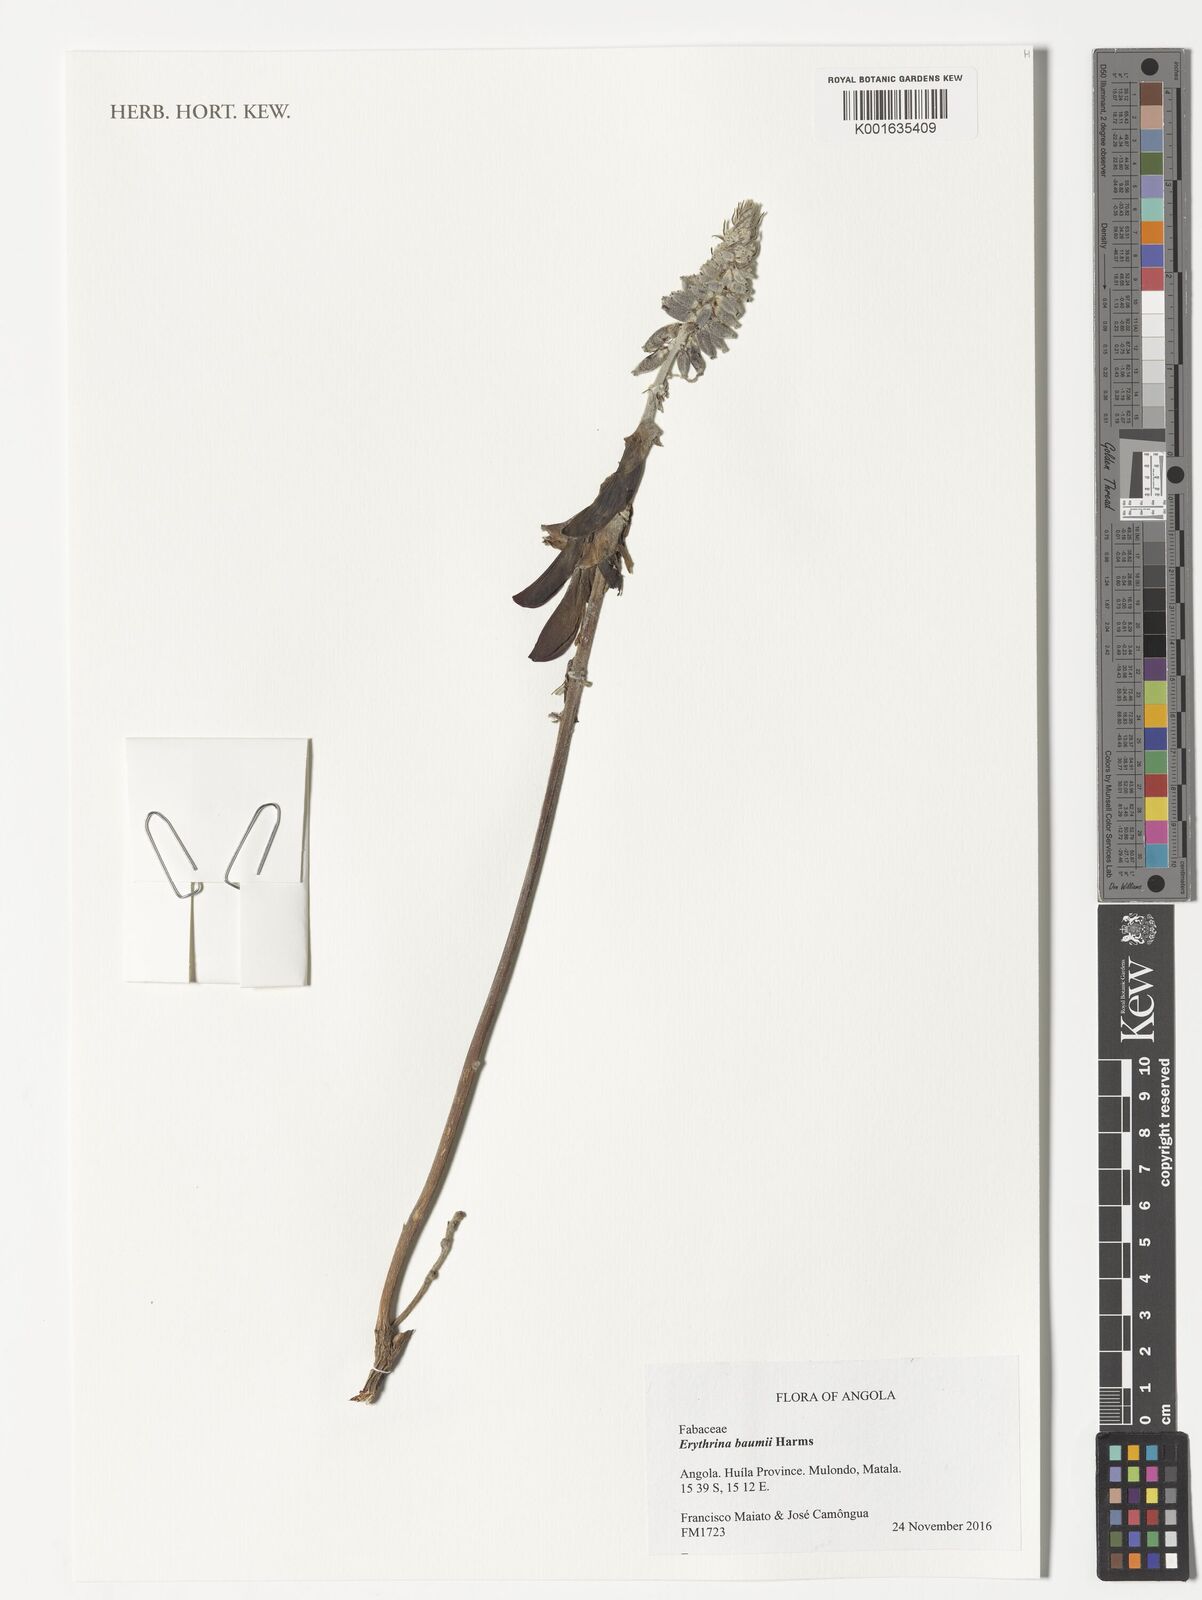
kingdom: Plantae
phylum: Tracheophyta
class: Magnoliopsida
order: Fabales
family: Fabaceae
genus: Erythrina
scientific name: Erythrina baumii
